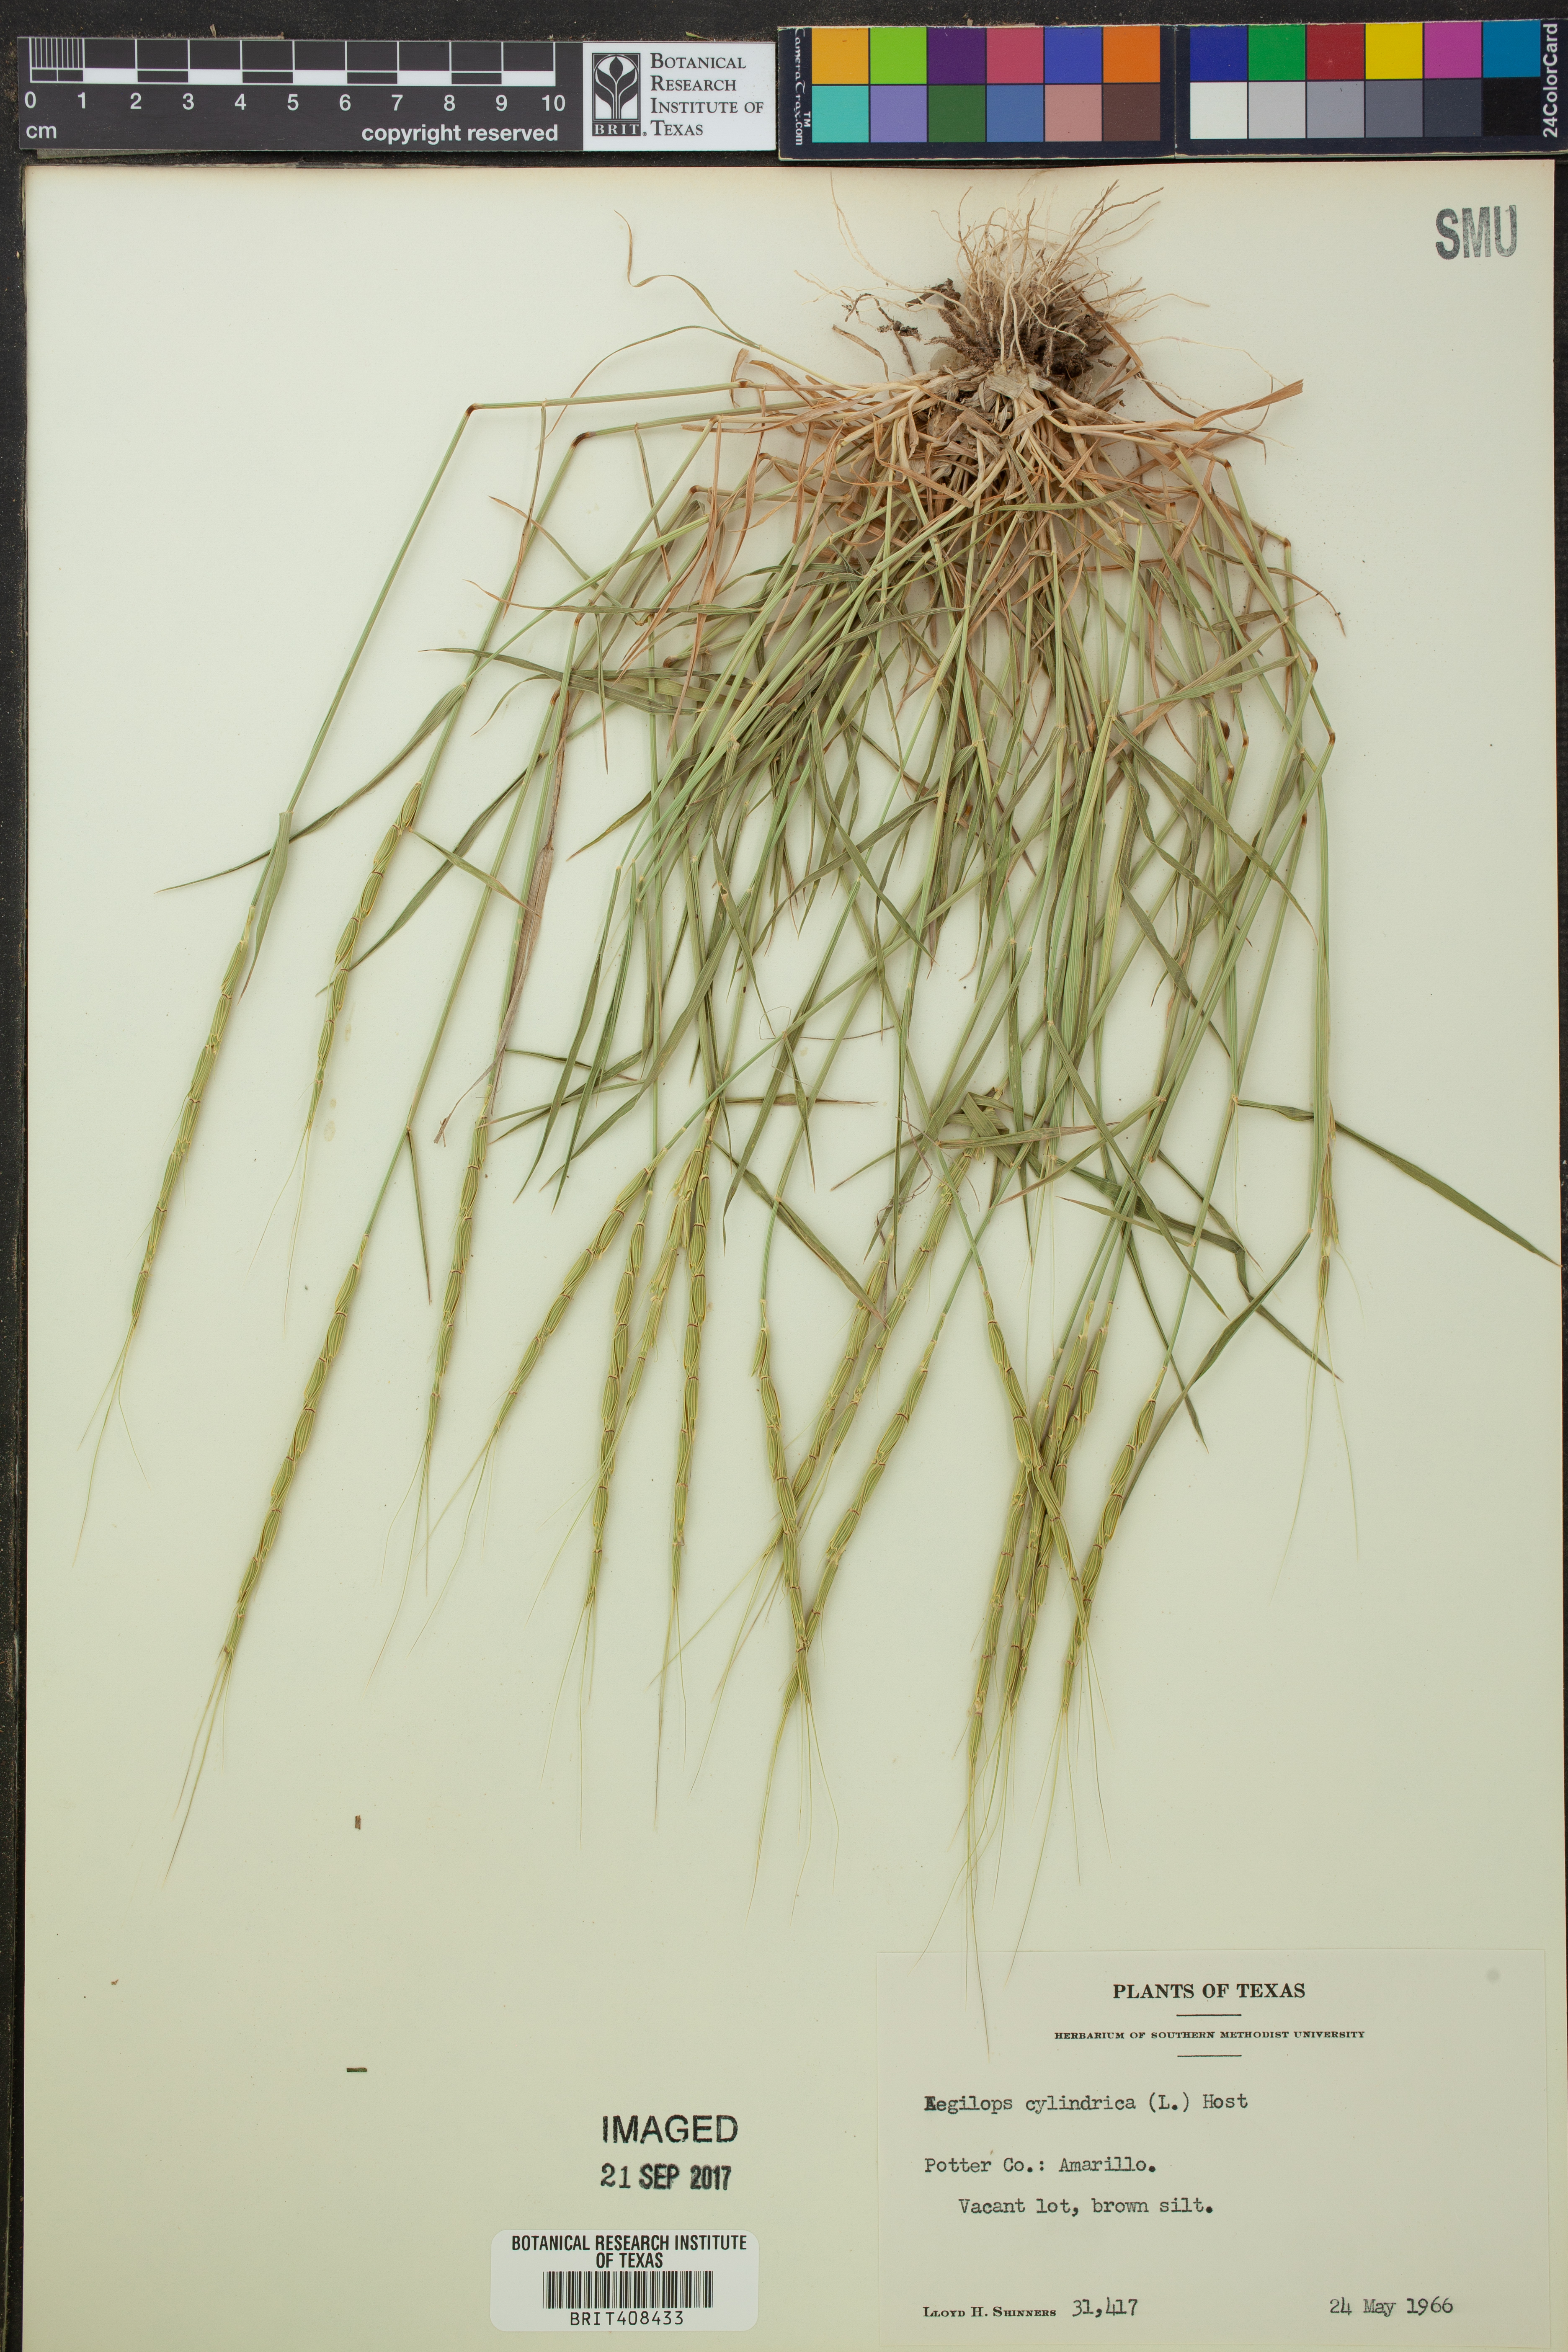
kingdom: Plantae
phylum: Tracheophyta
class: Liliopsida
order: Poales
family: Poaceae
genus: Aegilops
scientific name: Aegilops cylindrica
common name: Jointed goatgrass
